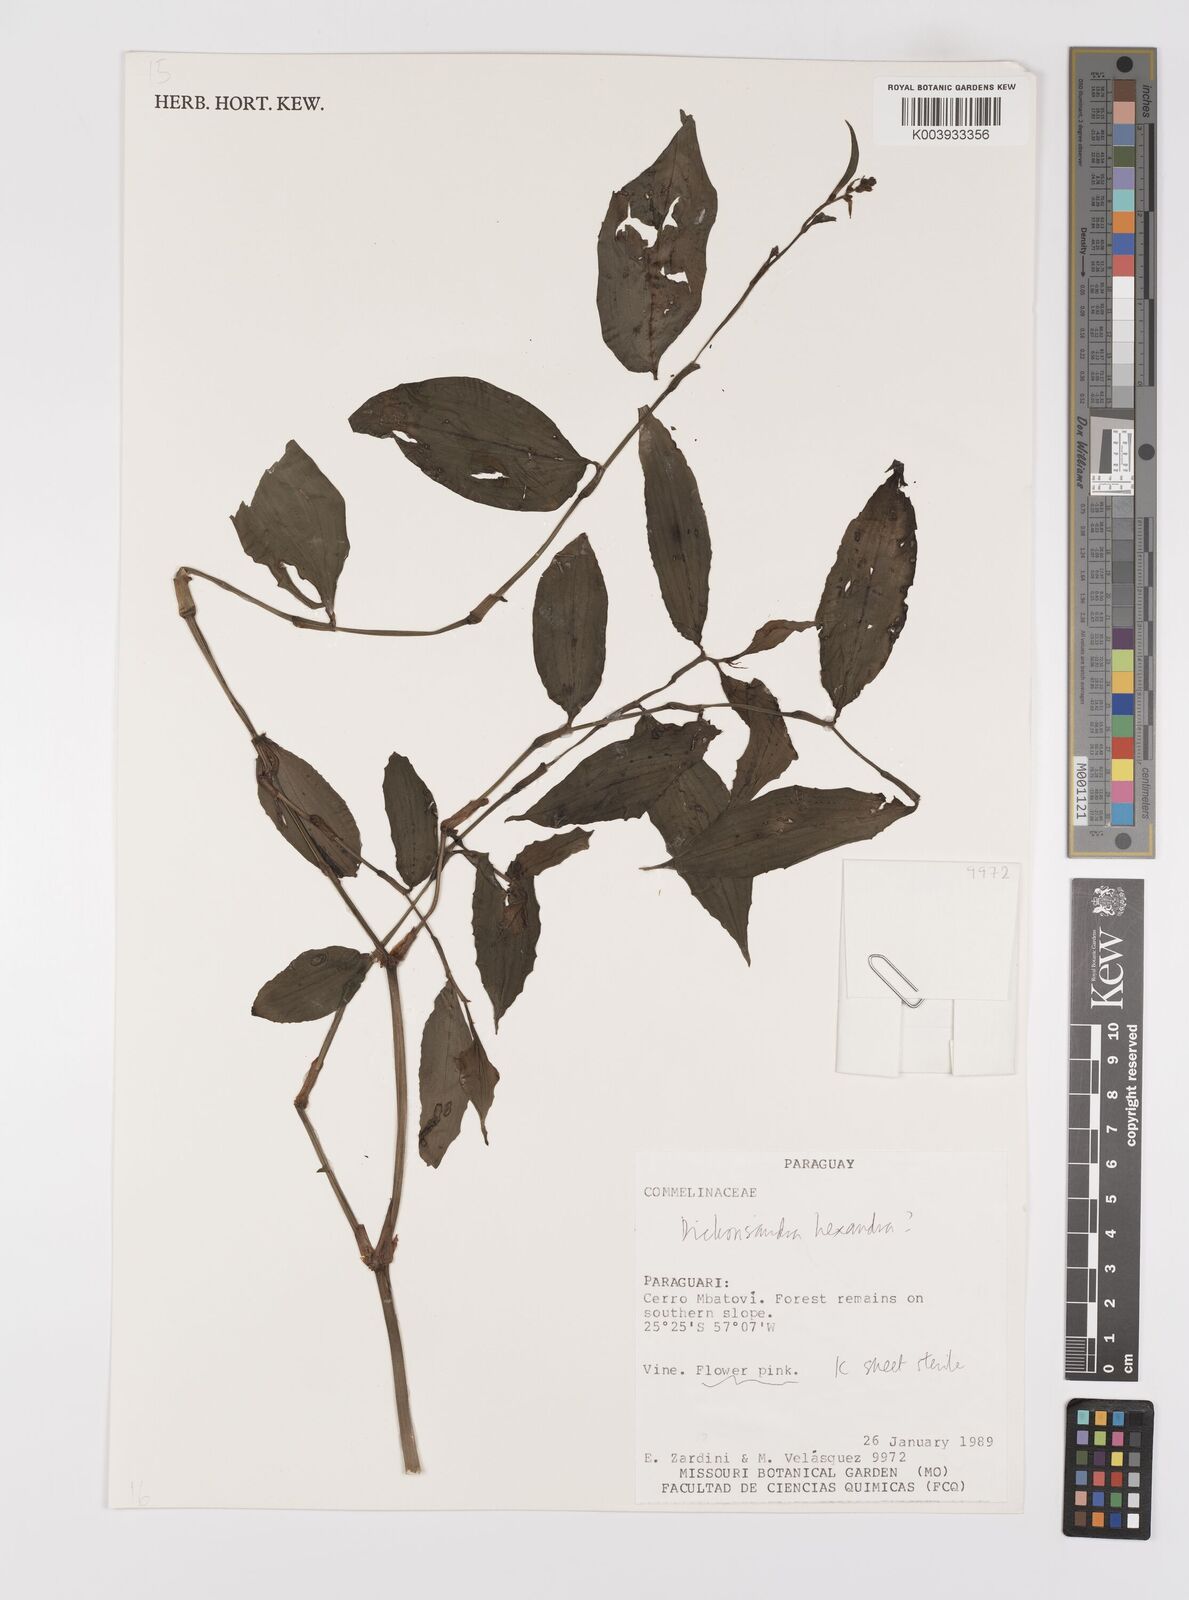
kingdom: Plantae
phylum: Tracheophyta
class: Liliopsida
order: Commelinales
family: Commelinaceae
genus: Dichorisandra
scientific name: Dichorisandra hexandra
